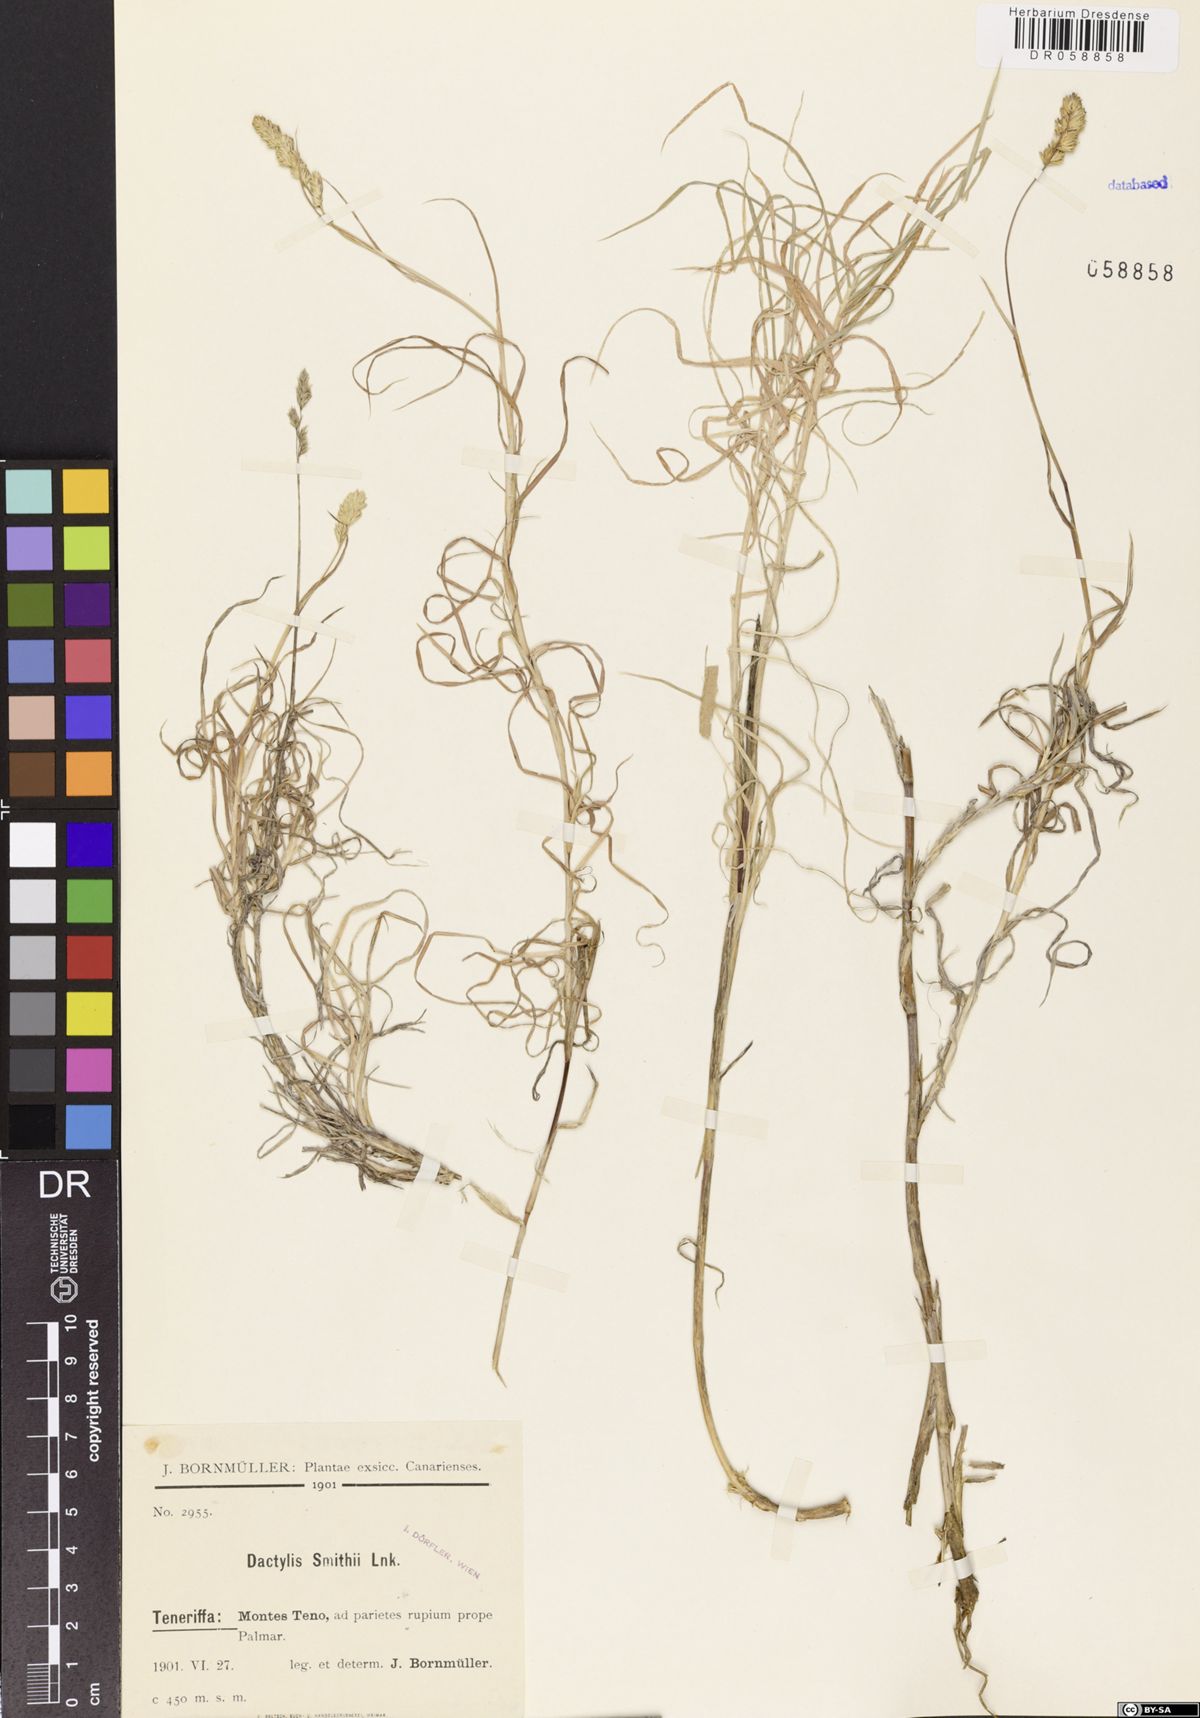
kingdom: Plantae
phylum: Tracheophyta
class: Liliopsida
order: Poales
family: Poaceae
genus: Dactylis
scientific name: Dactylis smithii
